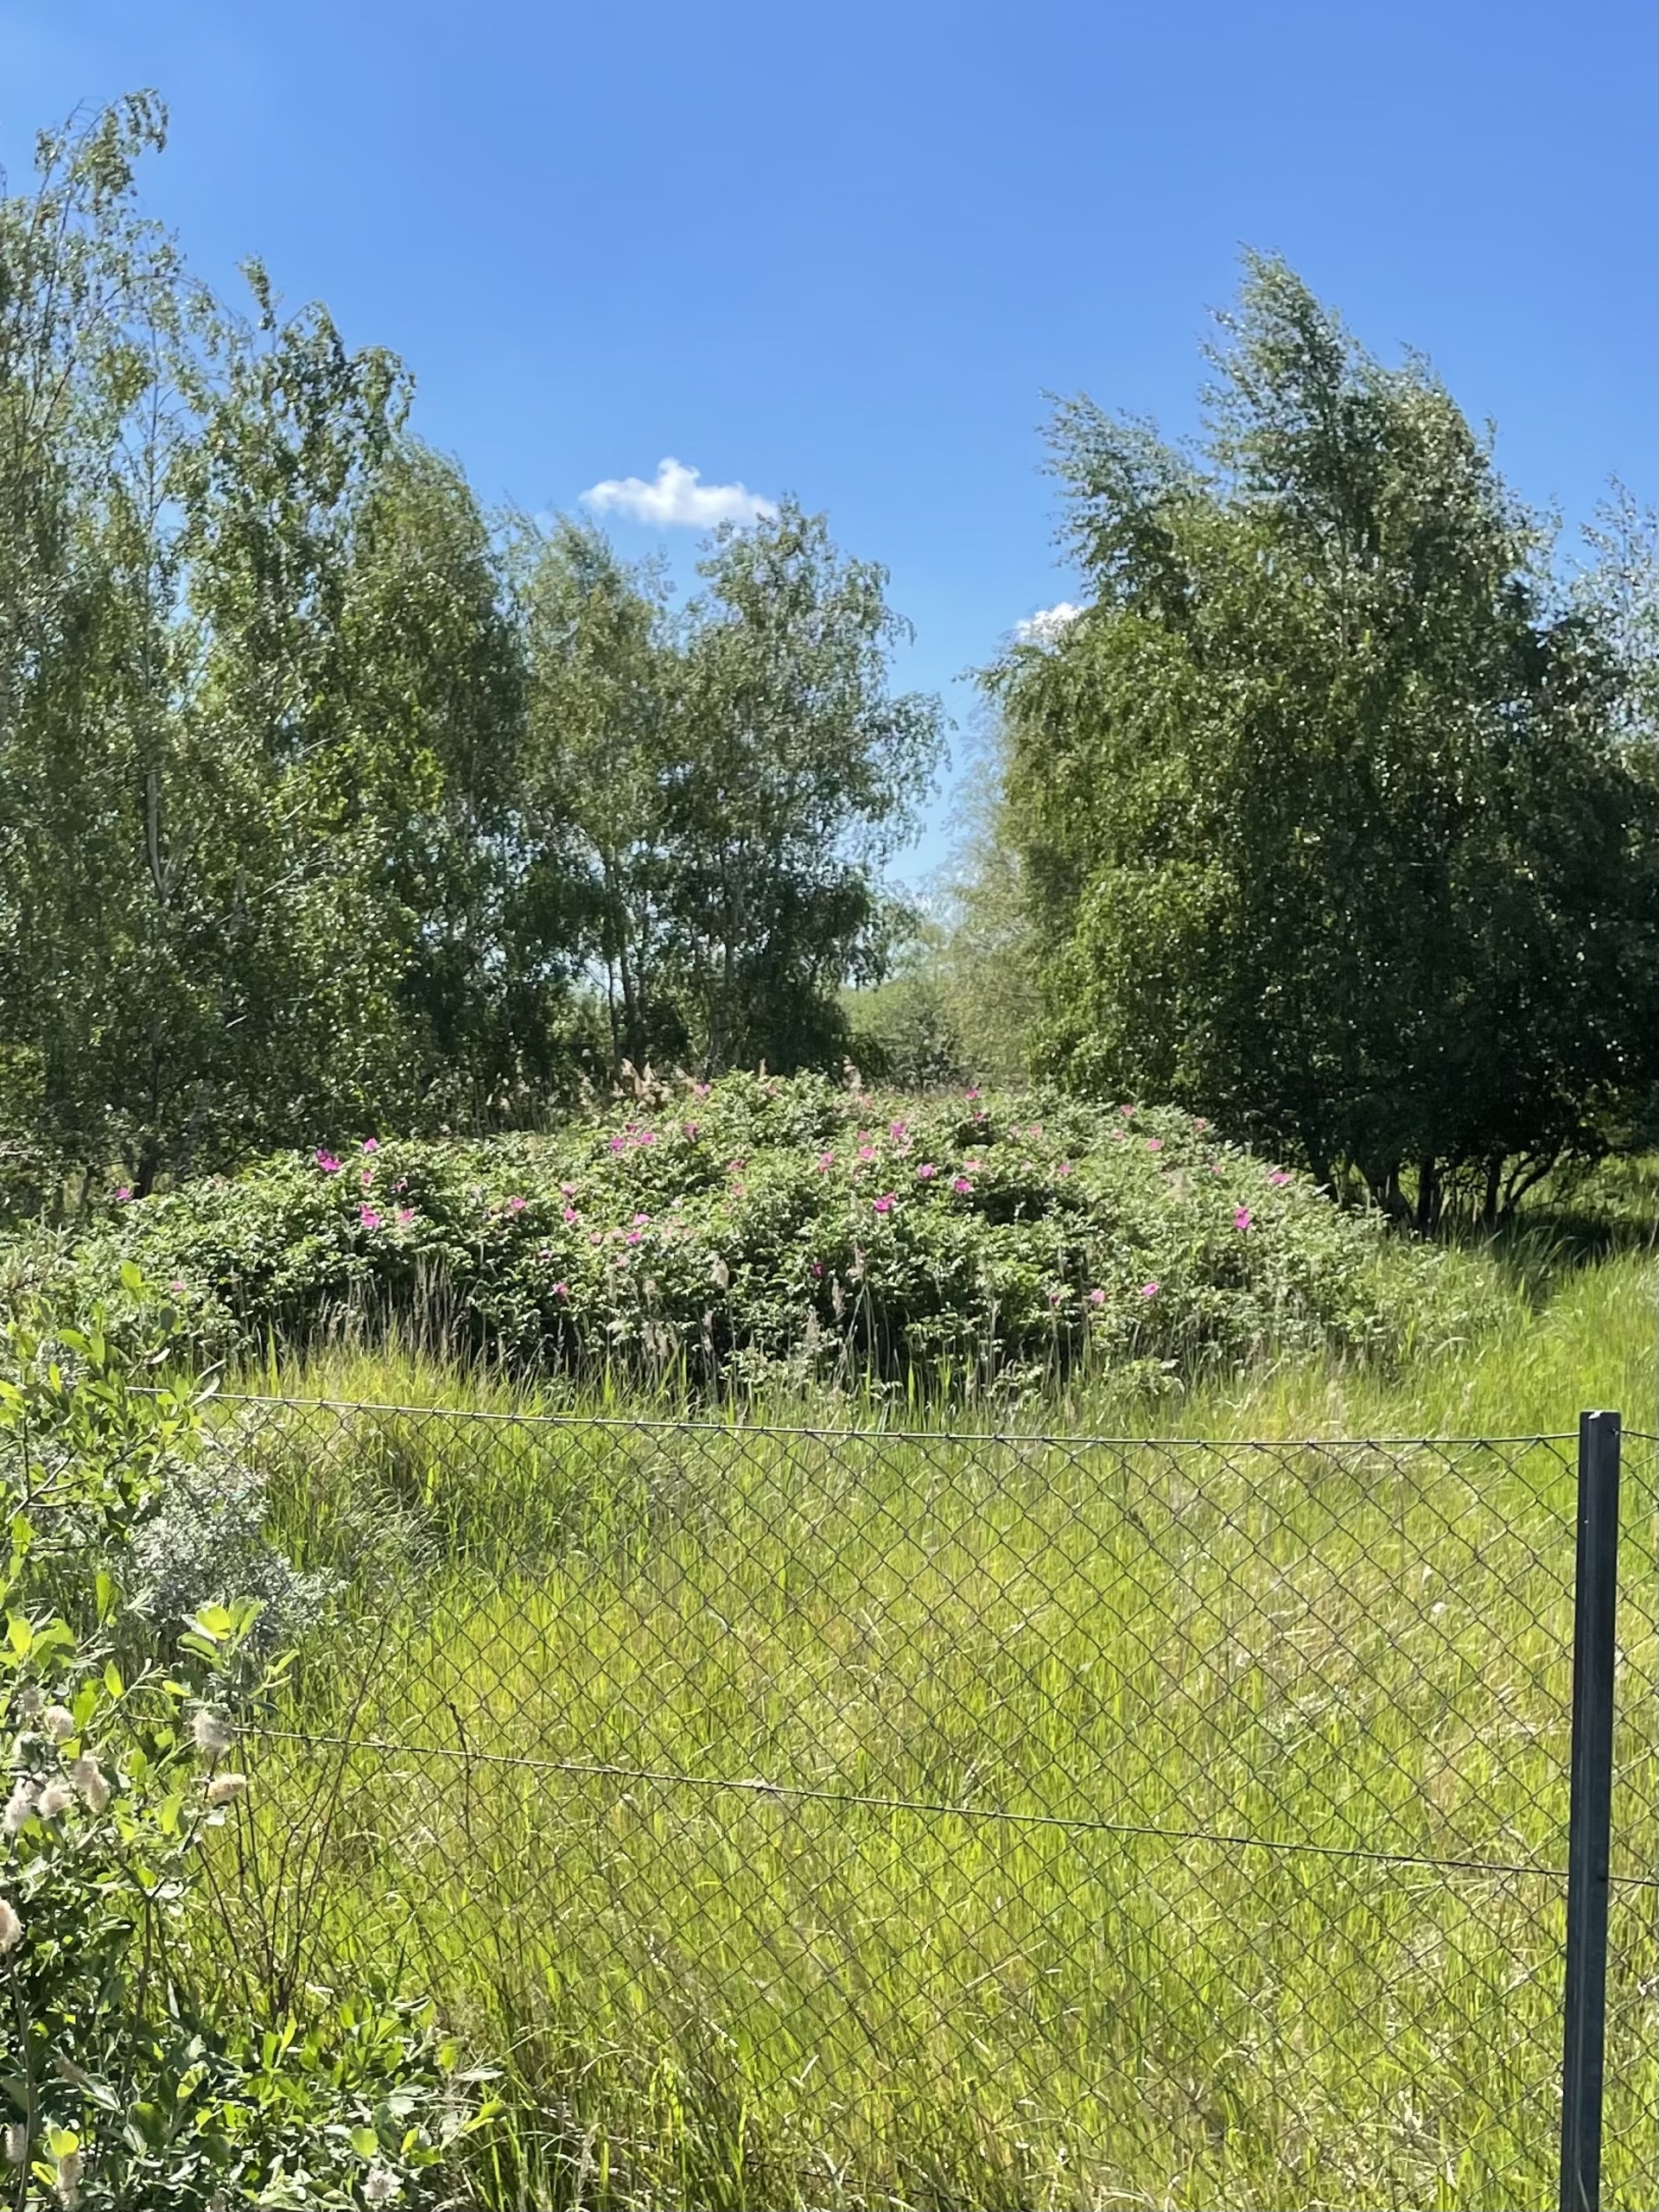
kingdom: Plantae
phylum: Tracheophyta
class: Magnoliopsida
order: Rosales
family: Rosaceae
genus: Rosa
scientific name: Rosa rugosa
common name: Rynket rose
